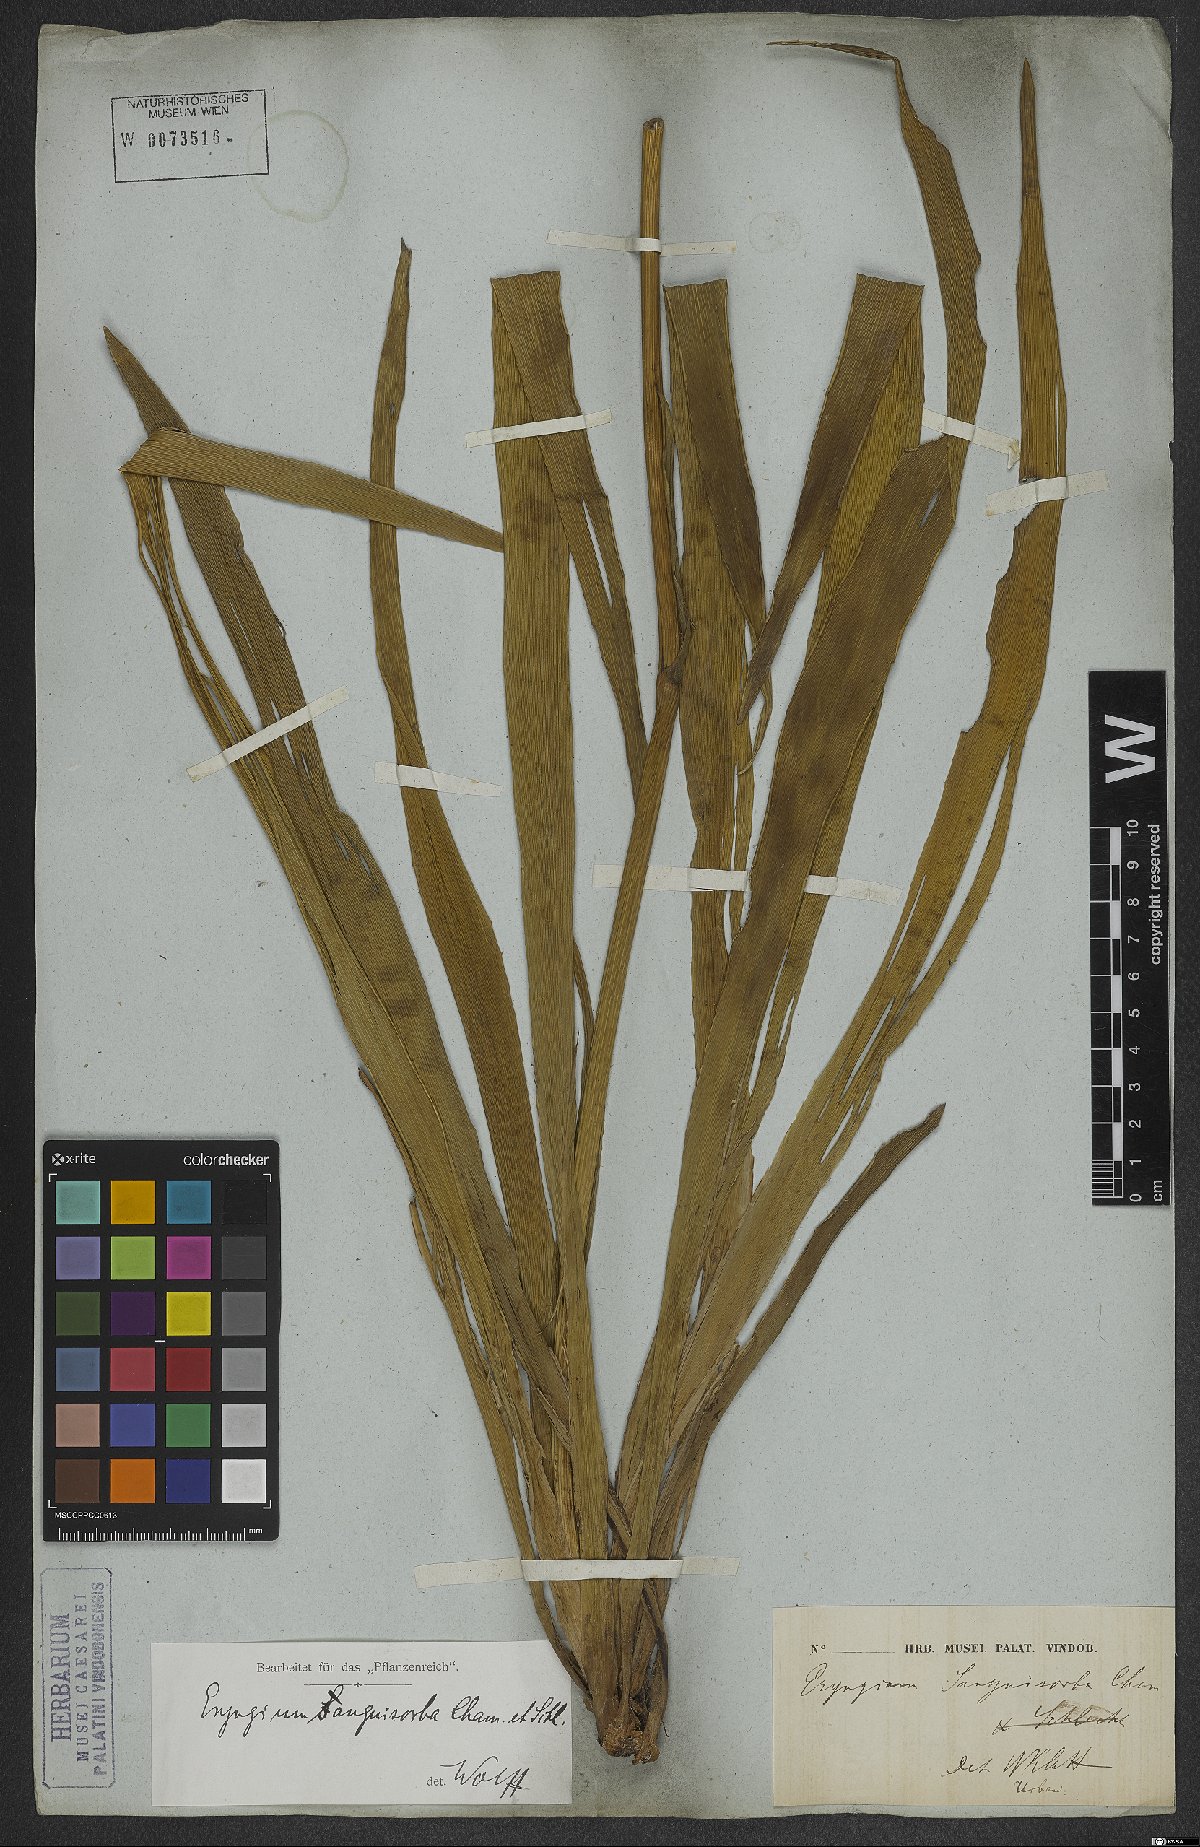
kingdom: Plantae
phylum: Tracheophyta
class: Magnoliopsida
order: Apiales
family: Apiaceae
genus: Eryngium
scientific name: Eryngium sanguisorba
